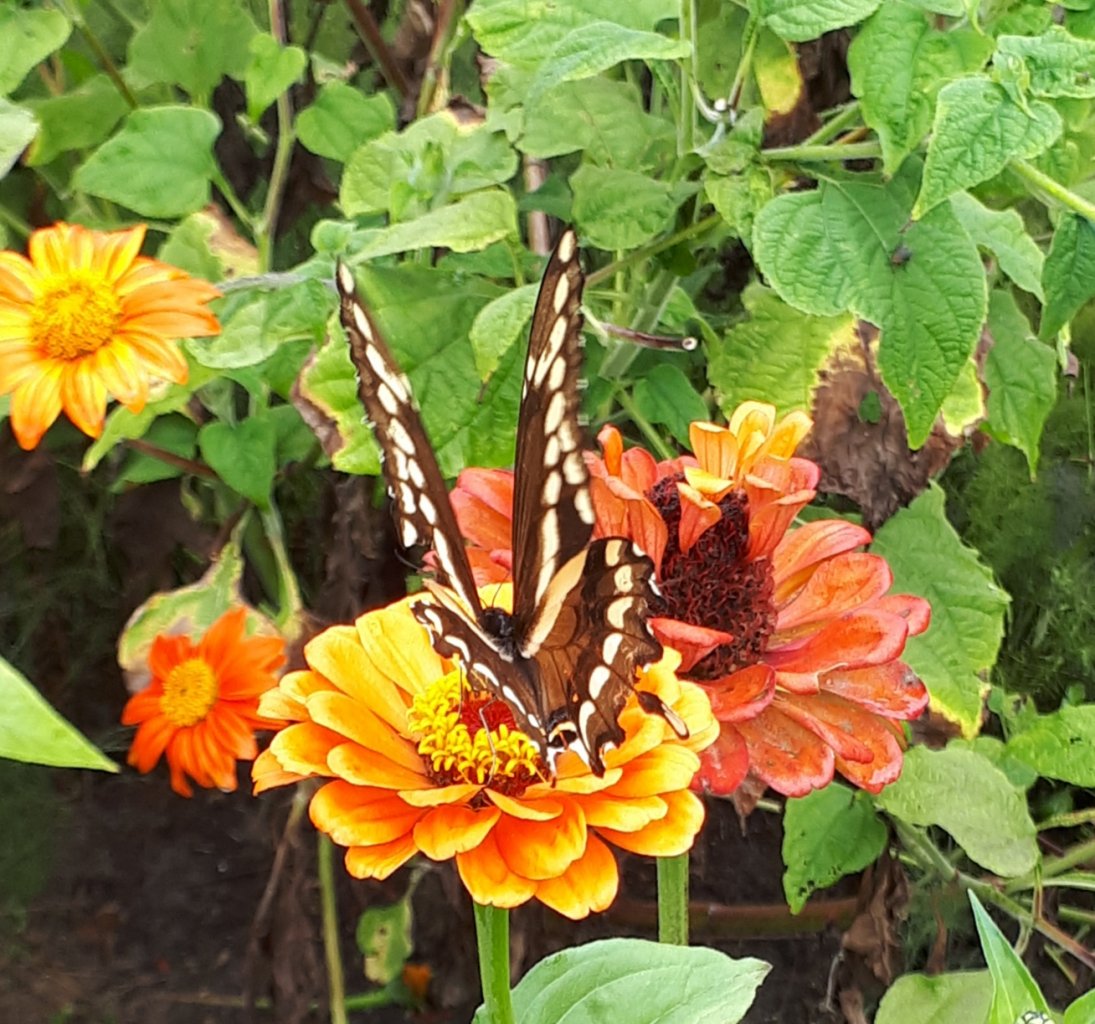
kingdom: Animalia
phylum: Arthropoda
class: Insecta
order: Lepidoptera
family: Papilionidae
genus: Papilio
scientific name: Papilio cresphontes
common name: Eastern Giant Swallowtail
